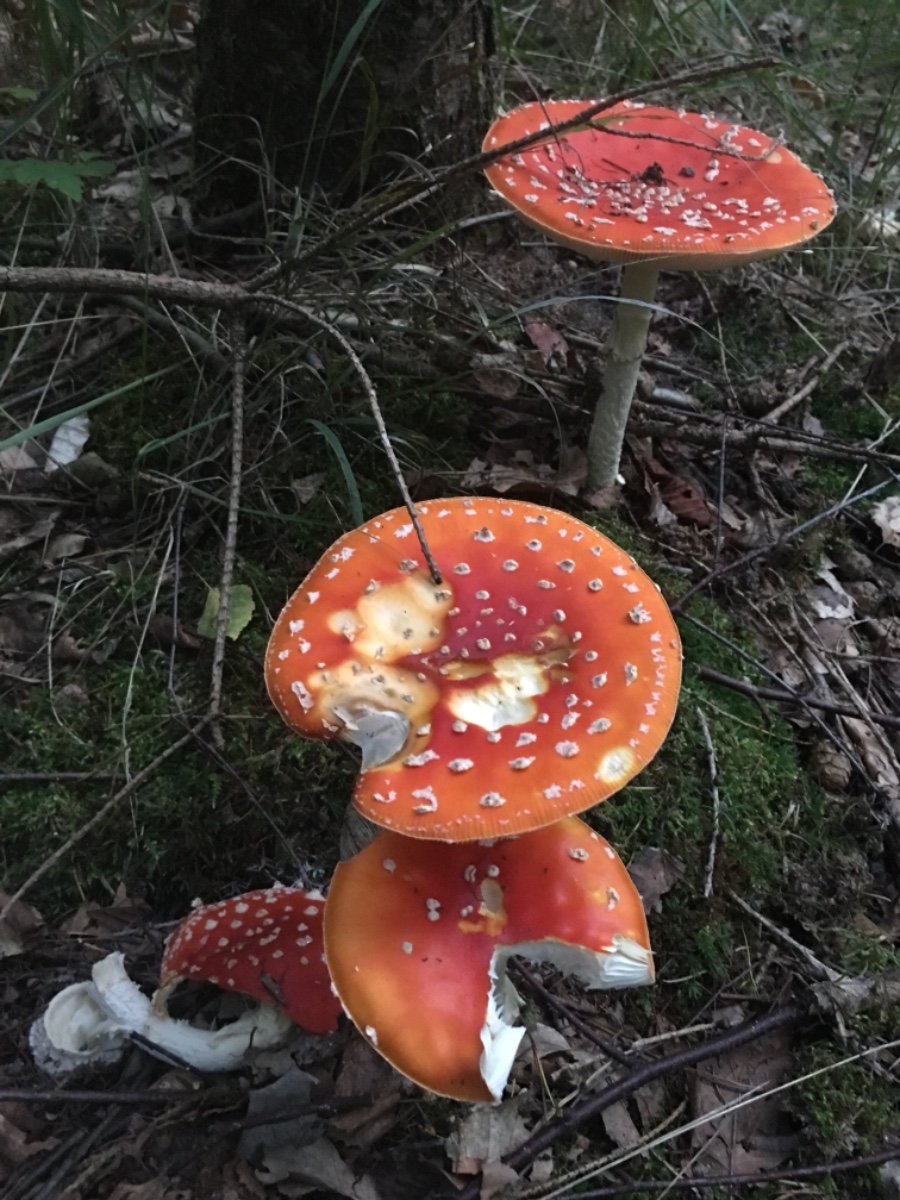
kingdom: Fungi
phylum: Basidiomycota
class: Agaricomycetes
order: Agaricales
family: Amanitaceae
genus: Amanita
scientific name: Amanita muscaria
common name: rød fluesvamp
